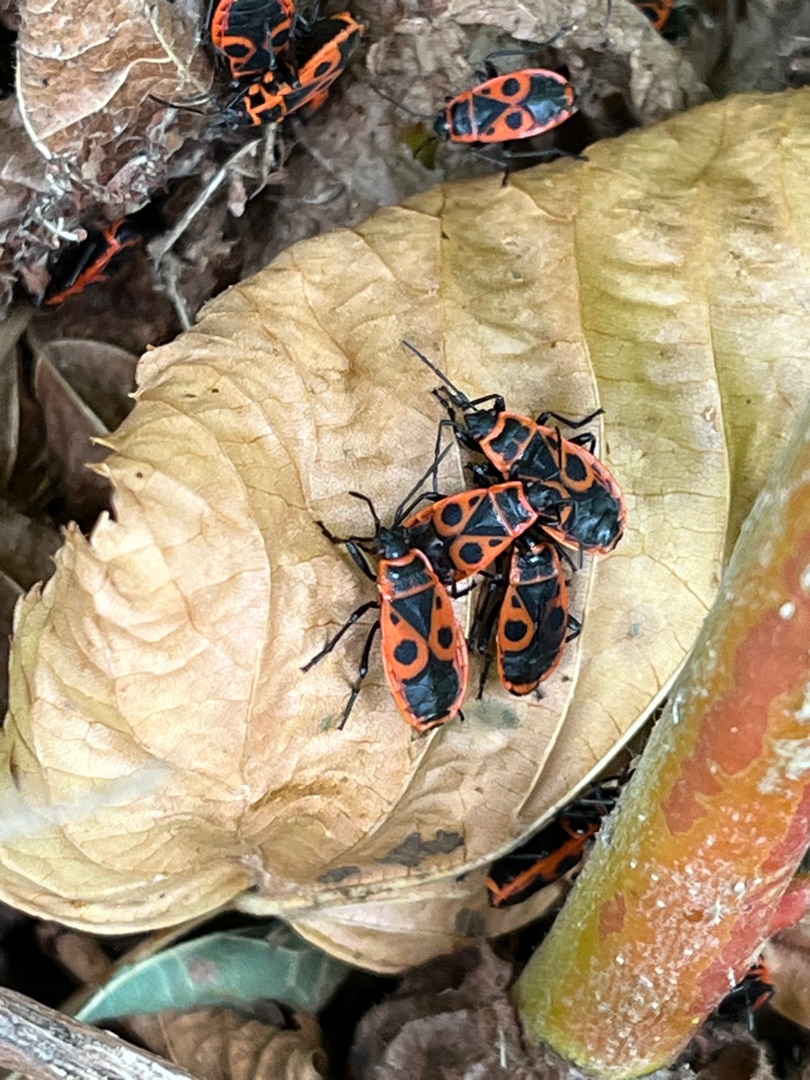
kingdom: Animalia
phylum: Arthropoda
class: Insecta
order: Hemiptera
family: Pyrrhocoridae
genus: Pyrrhocoris
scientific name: Pyrrhocoris apterus
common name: Ildtæge
